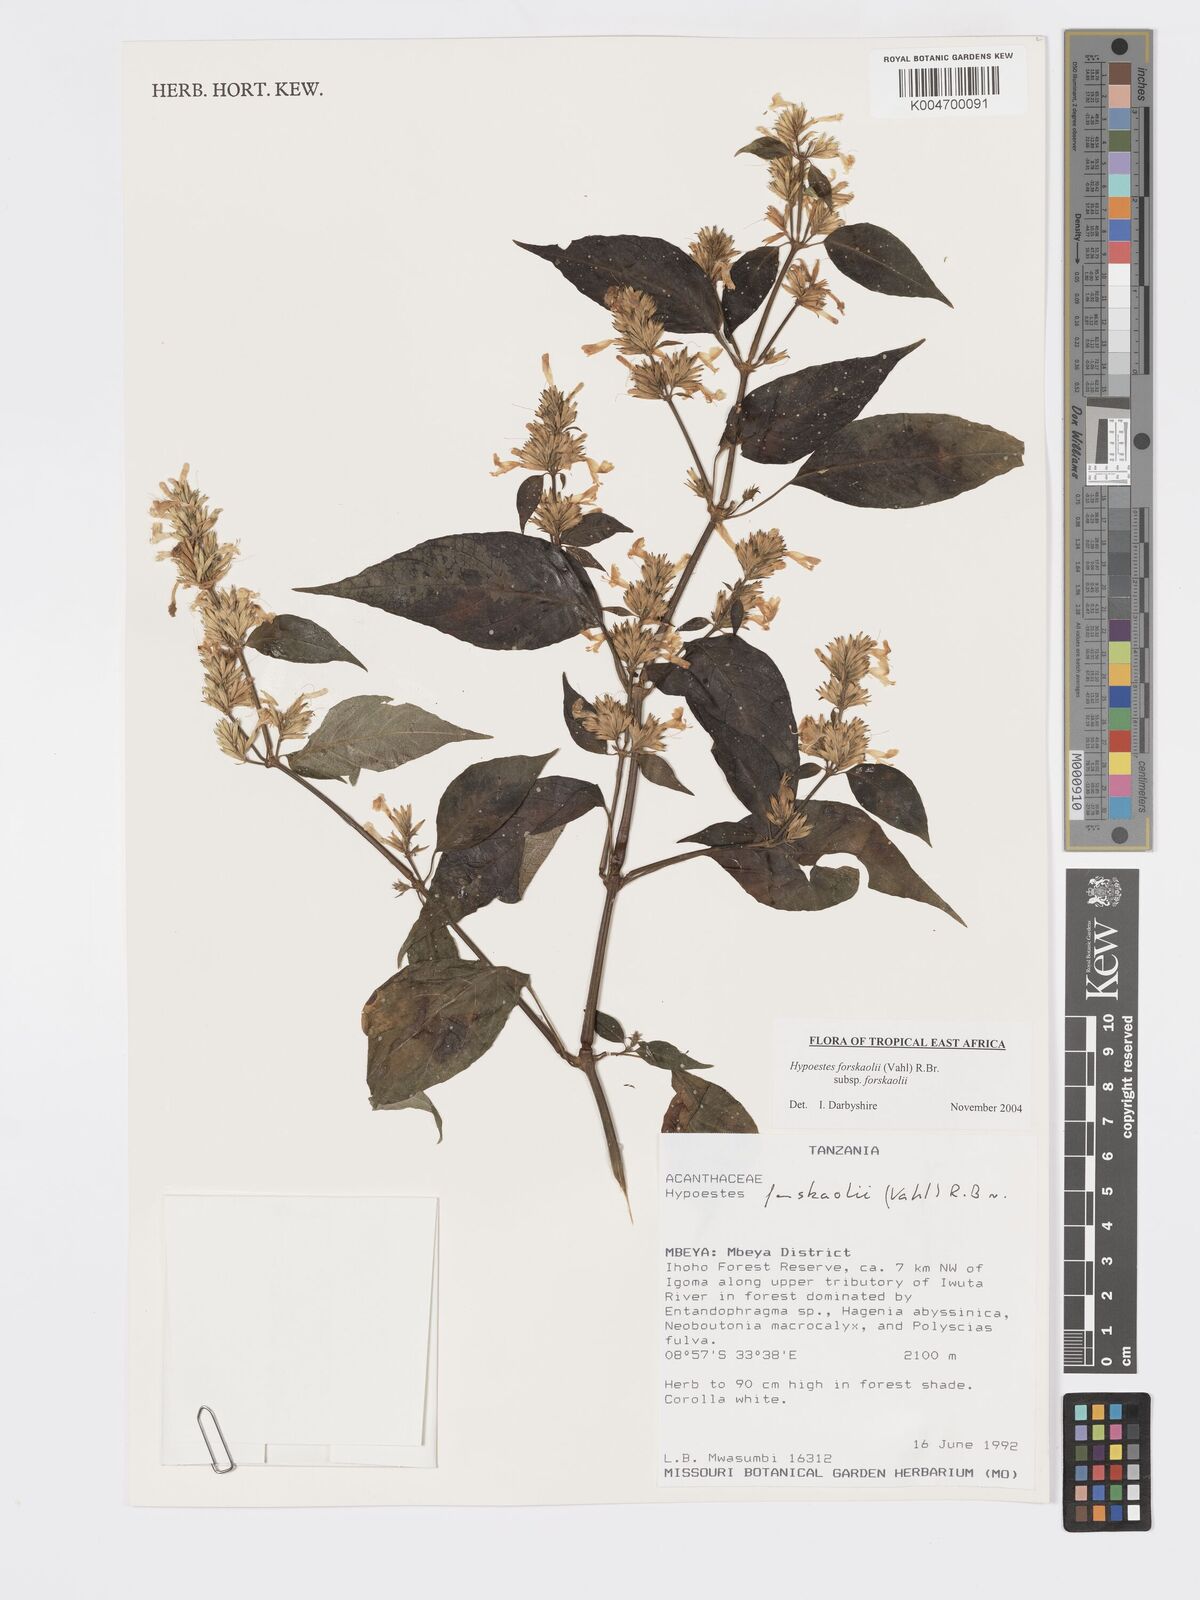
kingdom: Plantae
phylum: Tracheophyta
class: Magnoliopsida
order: Lamiales
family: Acanthaceae
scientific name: Acanthaceae
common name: Acanthaceae
